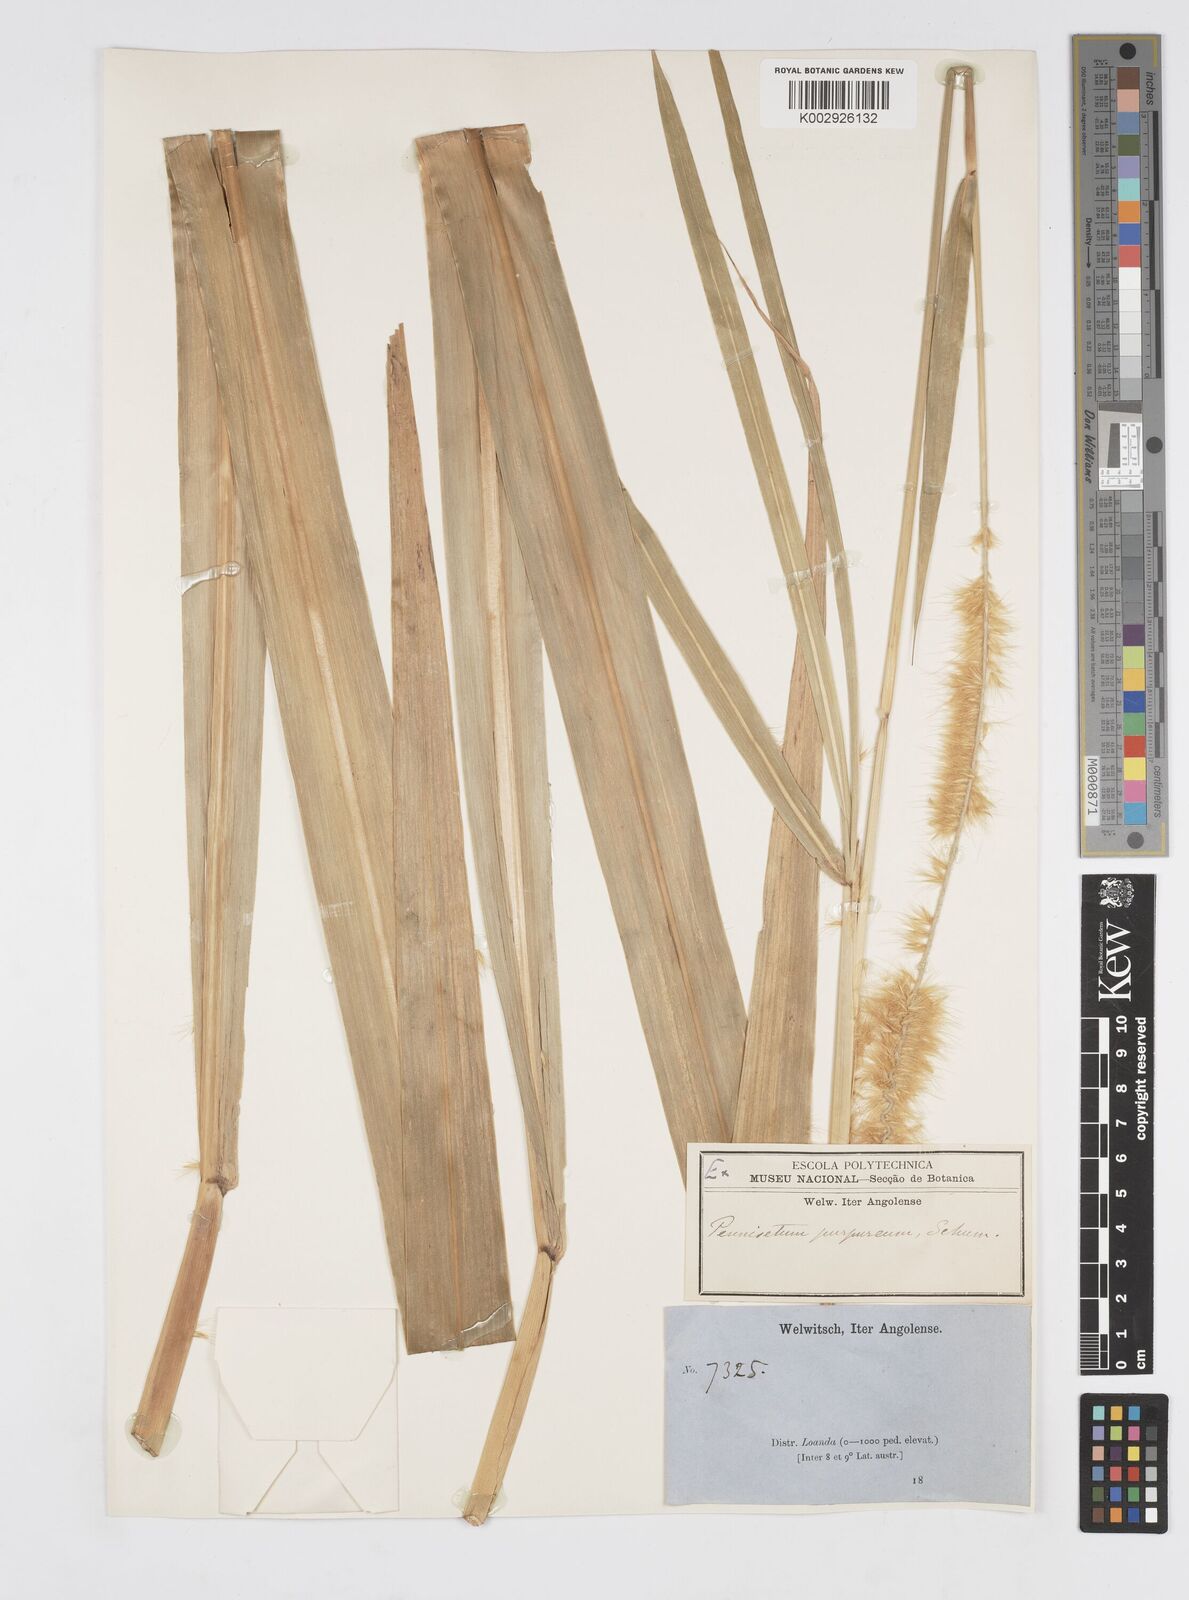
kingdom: Plantae
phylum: Tracheophyta
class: Liliopsida
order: Poales
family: Poaceae
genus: Cenchrus
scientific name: Cenchrus purpureus
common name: Elephant grass
